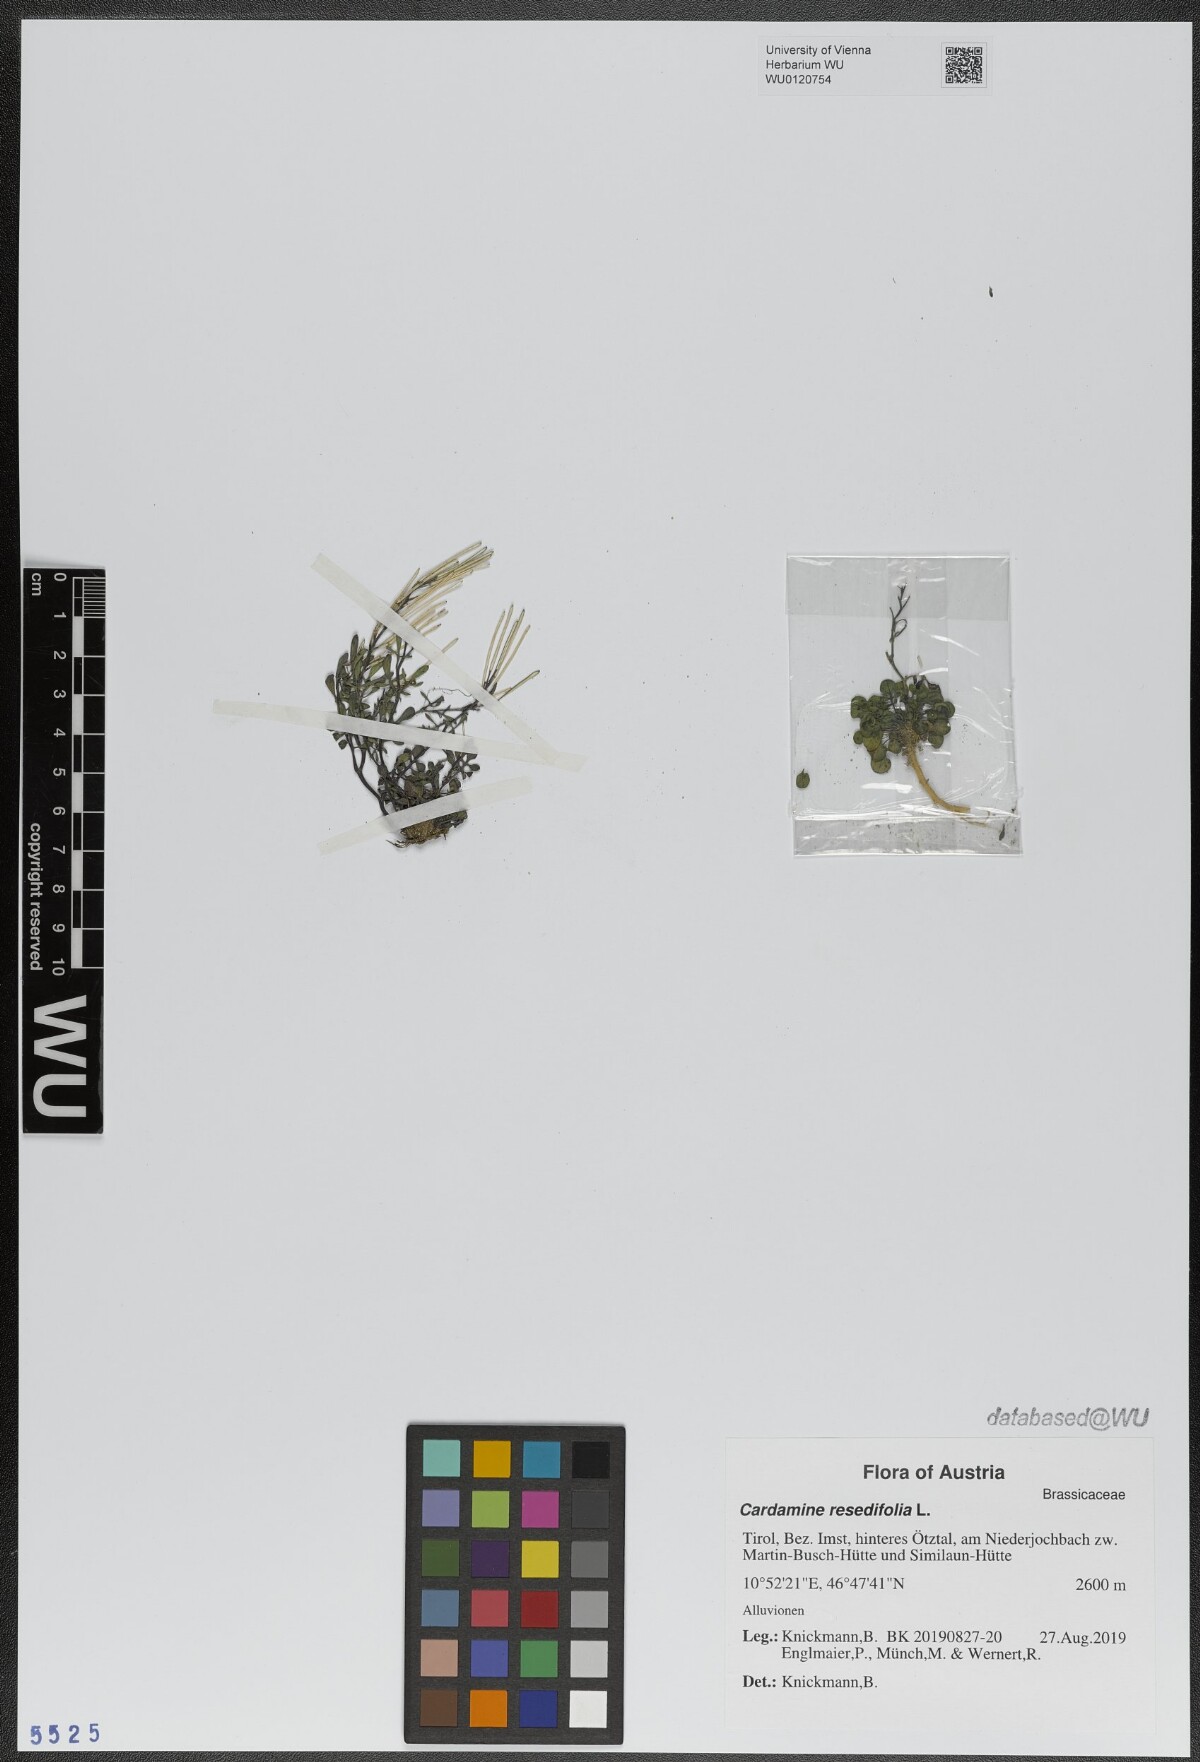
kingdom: Plantae
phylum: Tracheophyta
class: Magnoliopsida
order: Brassicales
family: Brassicaceae
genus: Cardamine
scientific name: Cardamine resedifolia
